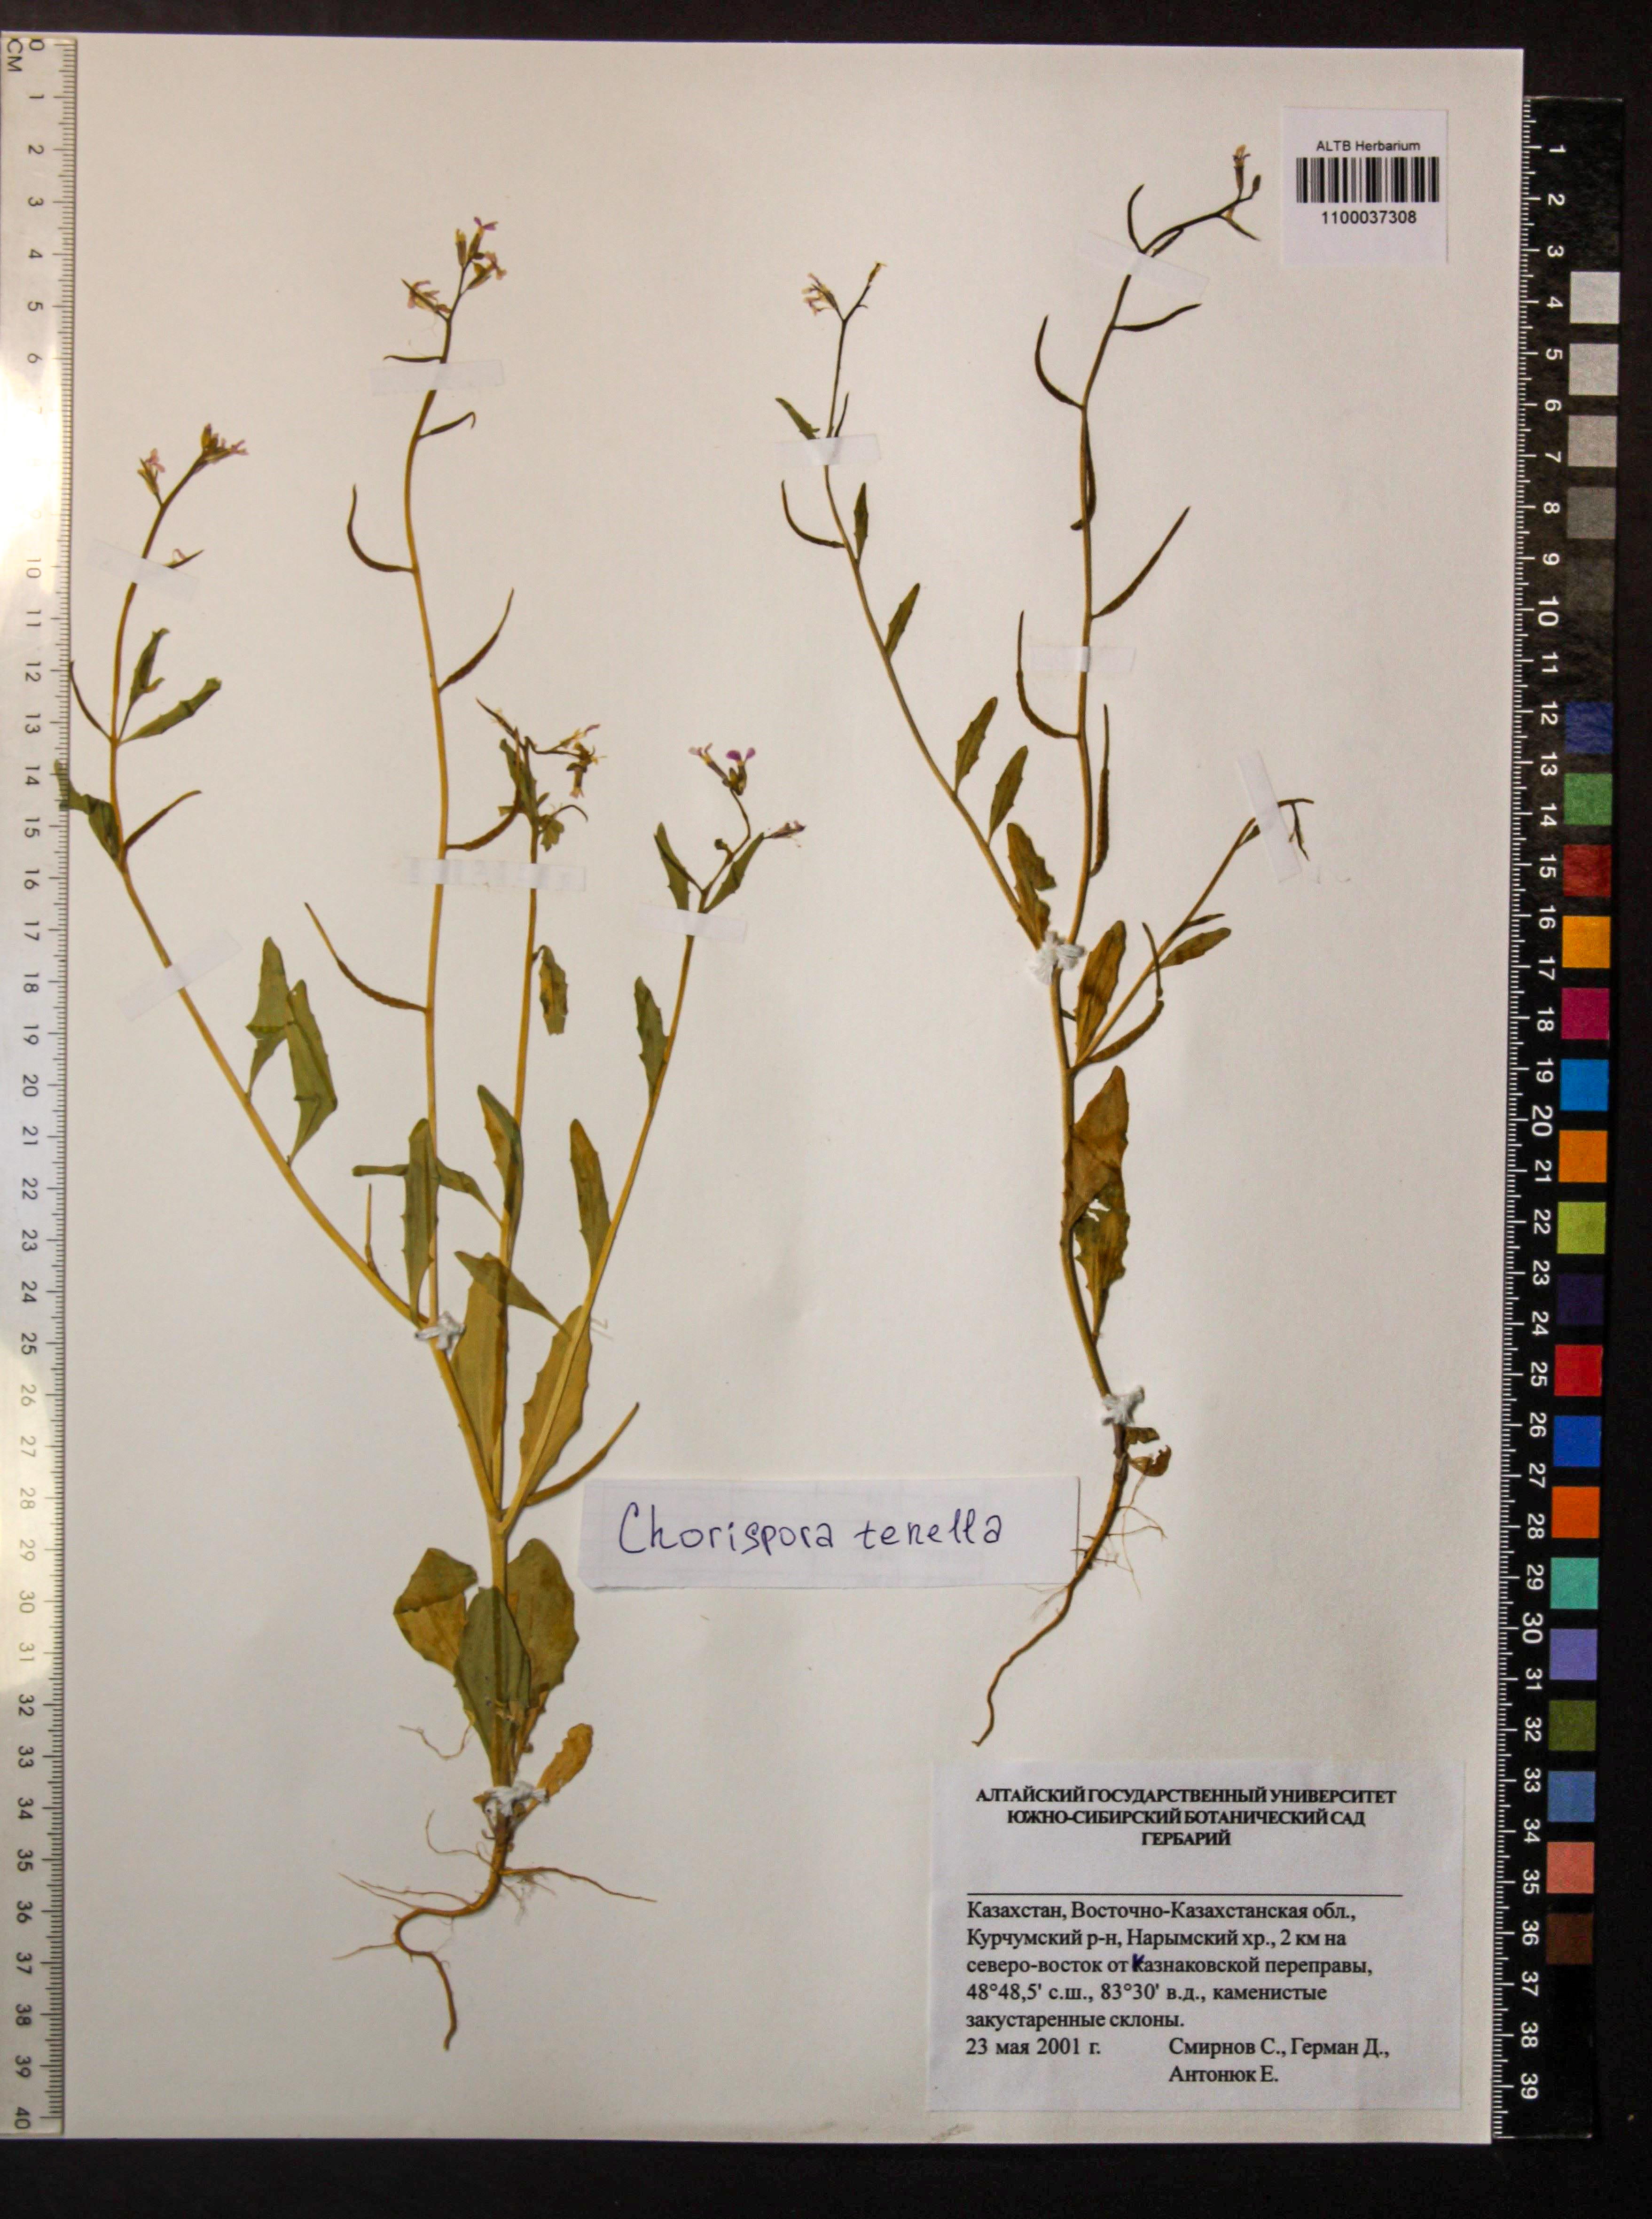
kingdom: Plantae
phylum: Tracheophyta
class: Magnoliopsida
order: Brassicales
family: Brassicaceae
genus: Chorispora
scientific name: Chorispora tenella
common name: Crossflower
